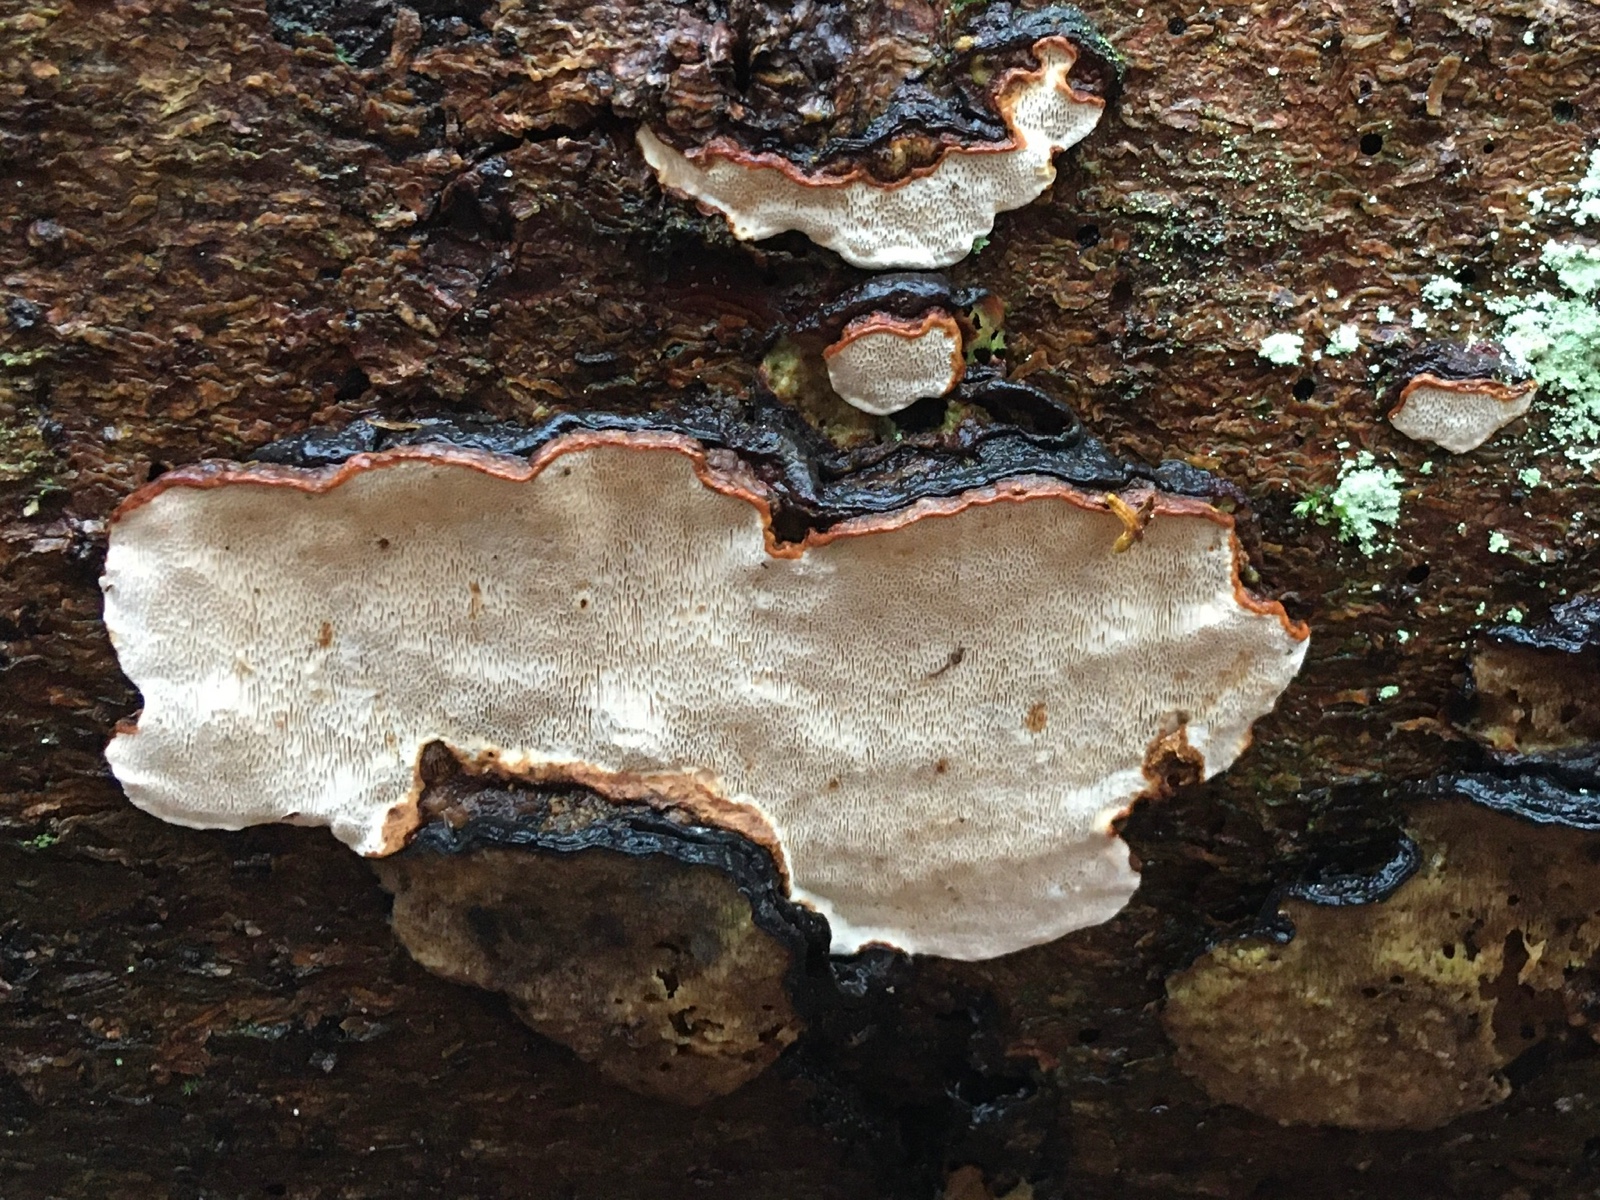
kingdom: Fungi
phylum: Basidiomycota
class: Agaricomycetes
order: Russulales
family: Bondarzewiaceae
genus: Heterobasidion
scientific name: Heterobasidion parviporum
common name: småporet rodfordærver
